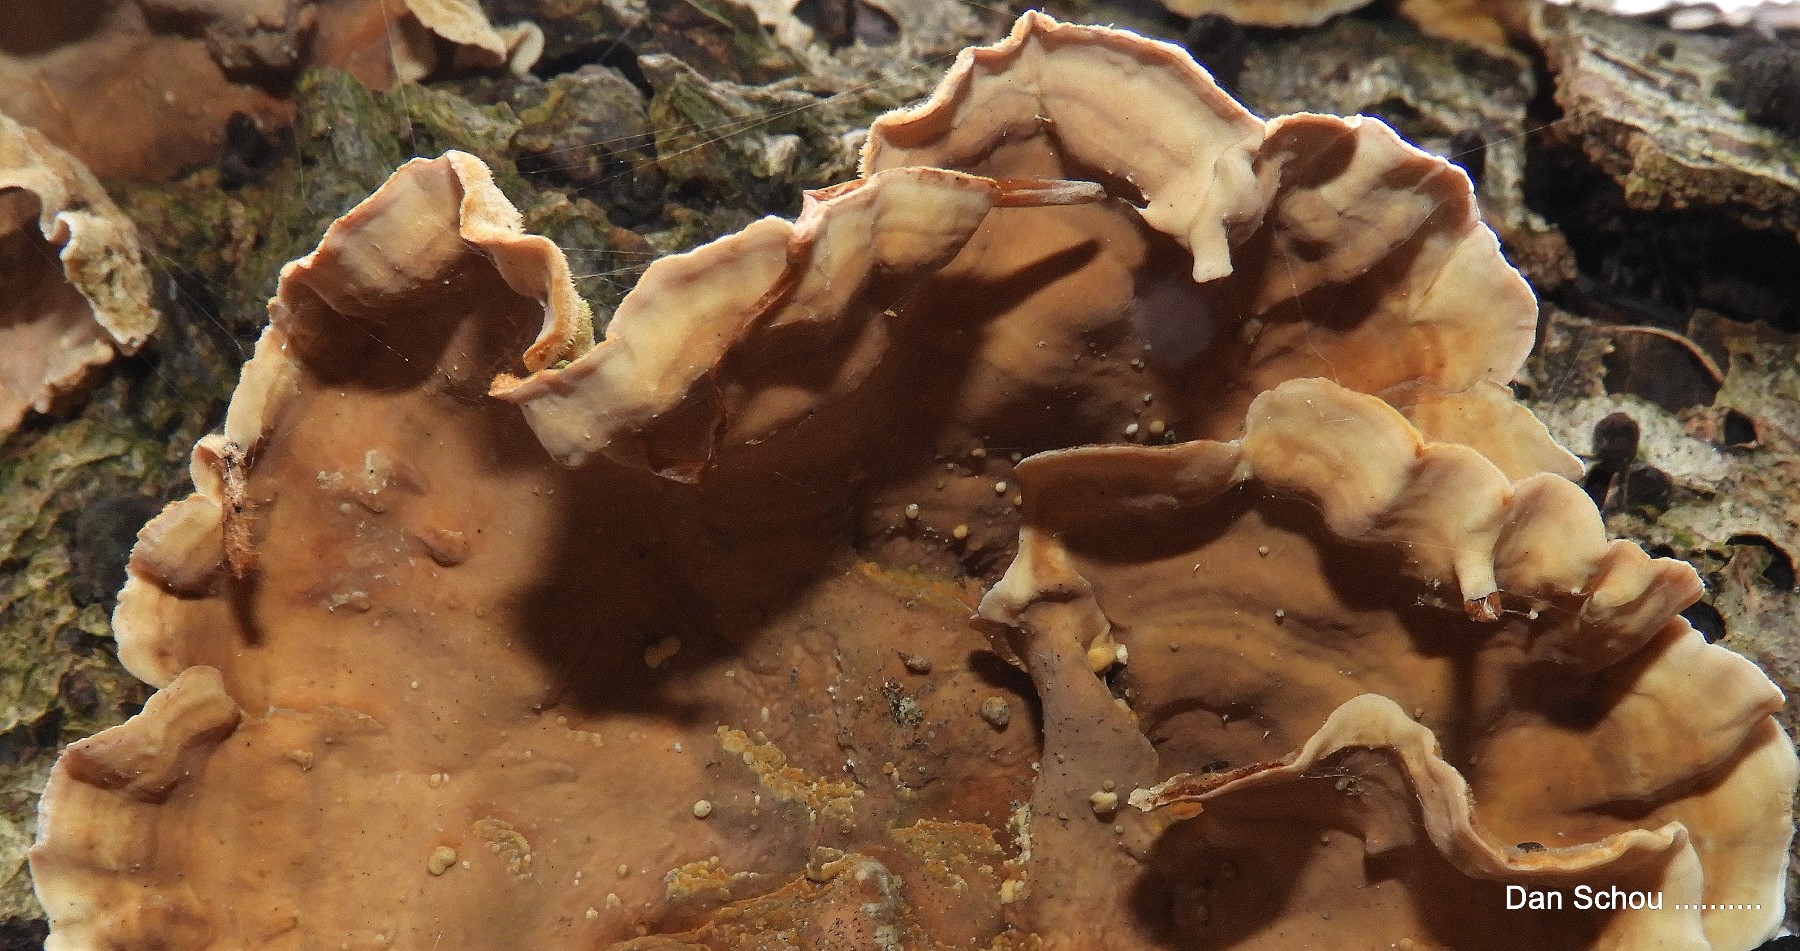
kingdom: Fungi
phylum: Basidiomycota
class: Agaricomycetes
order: Russulales
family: Stereaceae
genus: Stereum
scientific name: Stereum subtomentosum
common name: smuk lædersvamp
